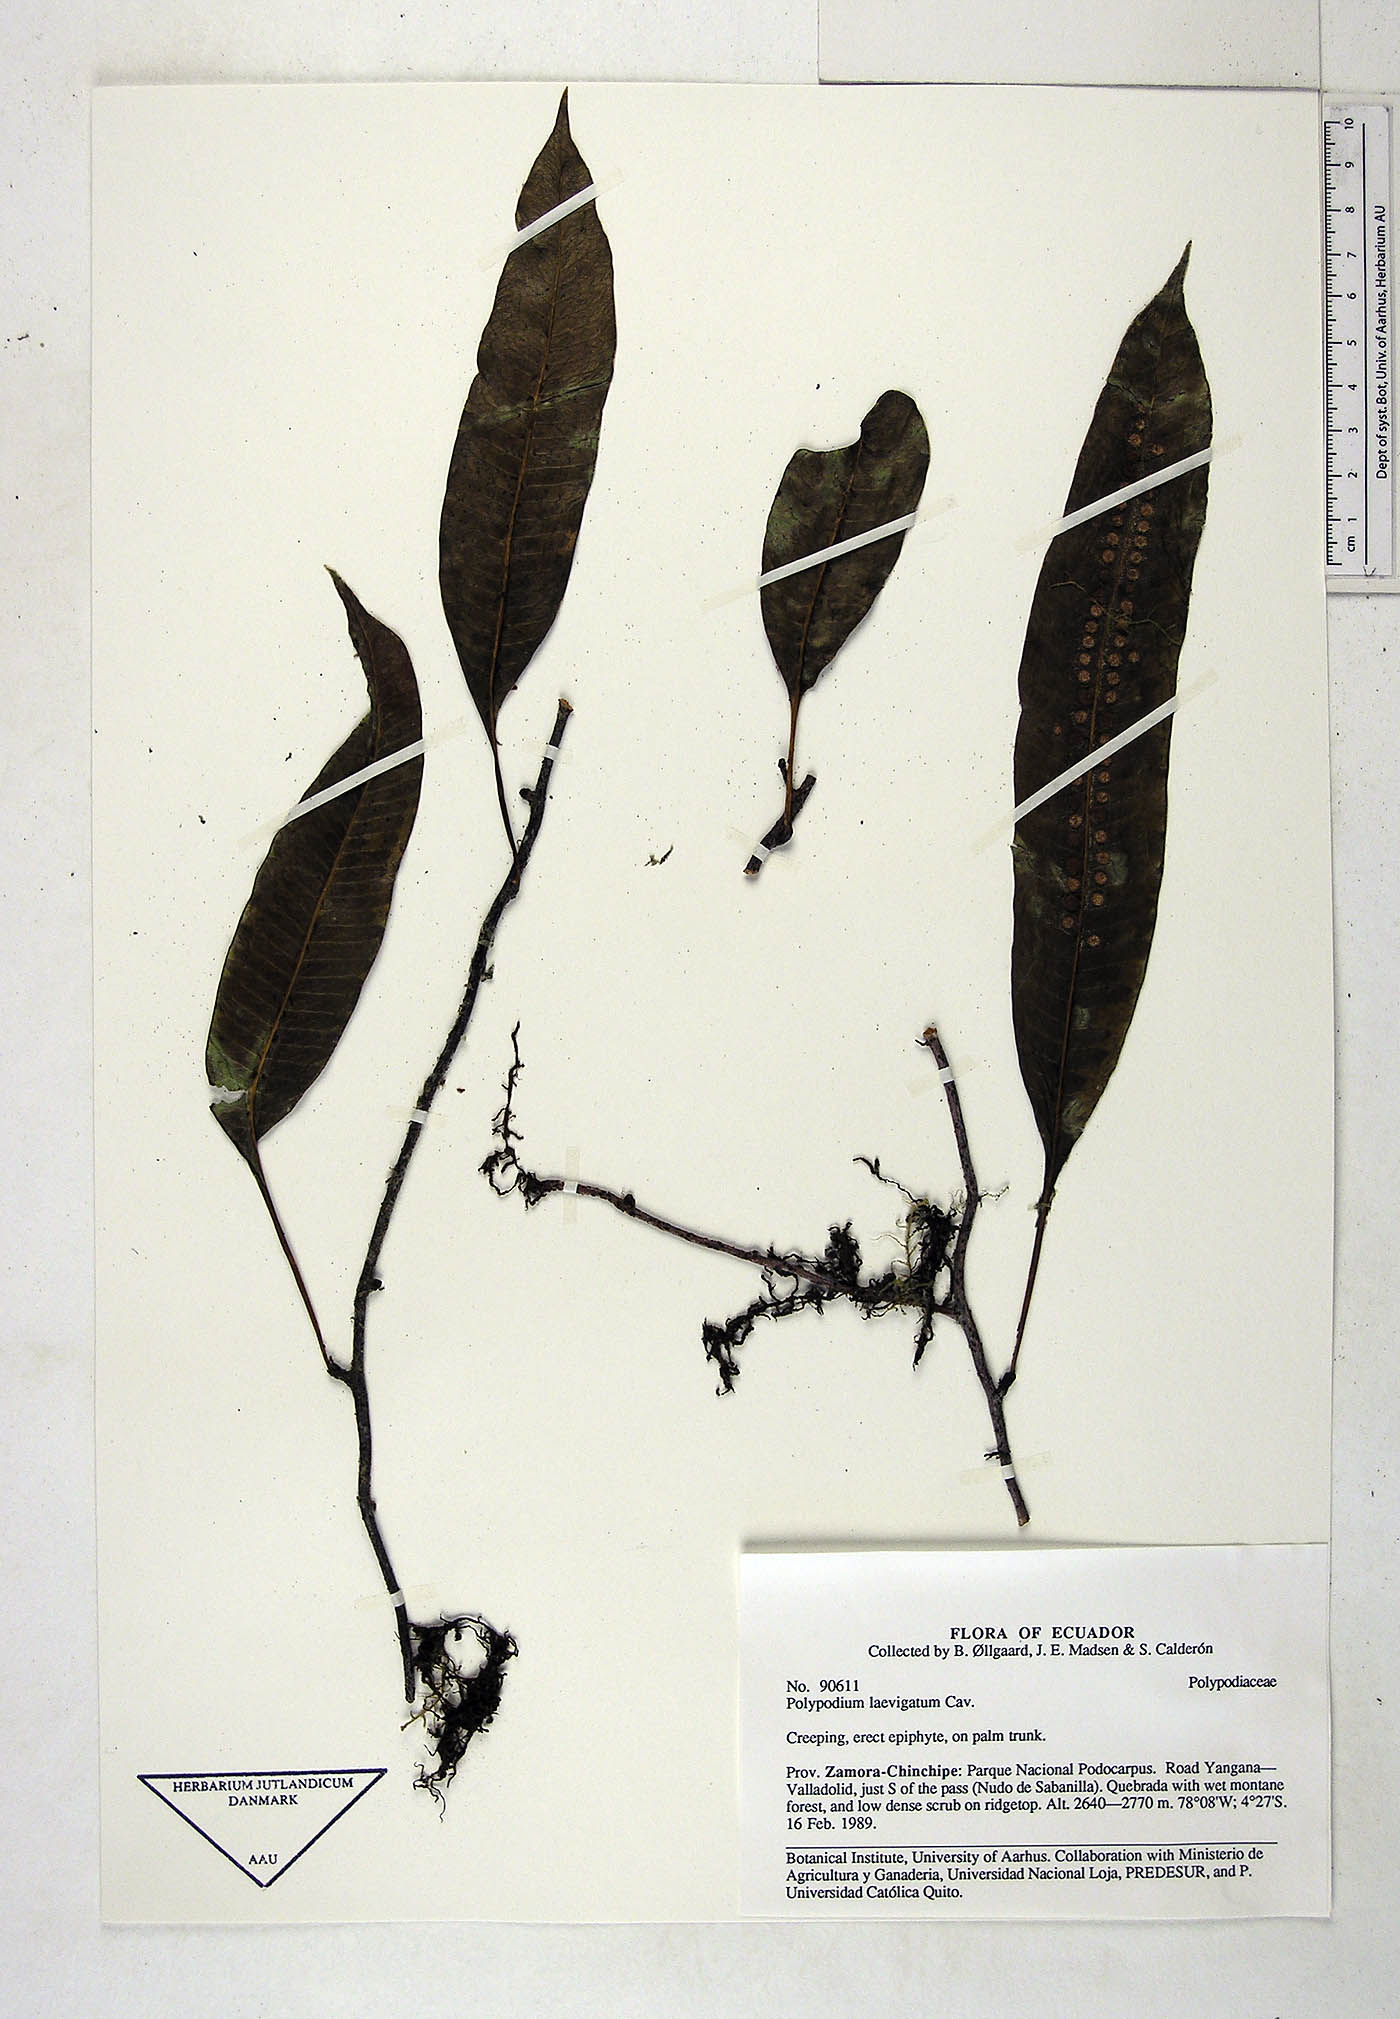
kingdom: Plantae
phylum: Tracheophyta
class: Polypodiopsida
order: Polypodiales
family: Polypodiaceae
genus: Serpocaulon
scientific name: Serpocaulon laevigatum
